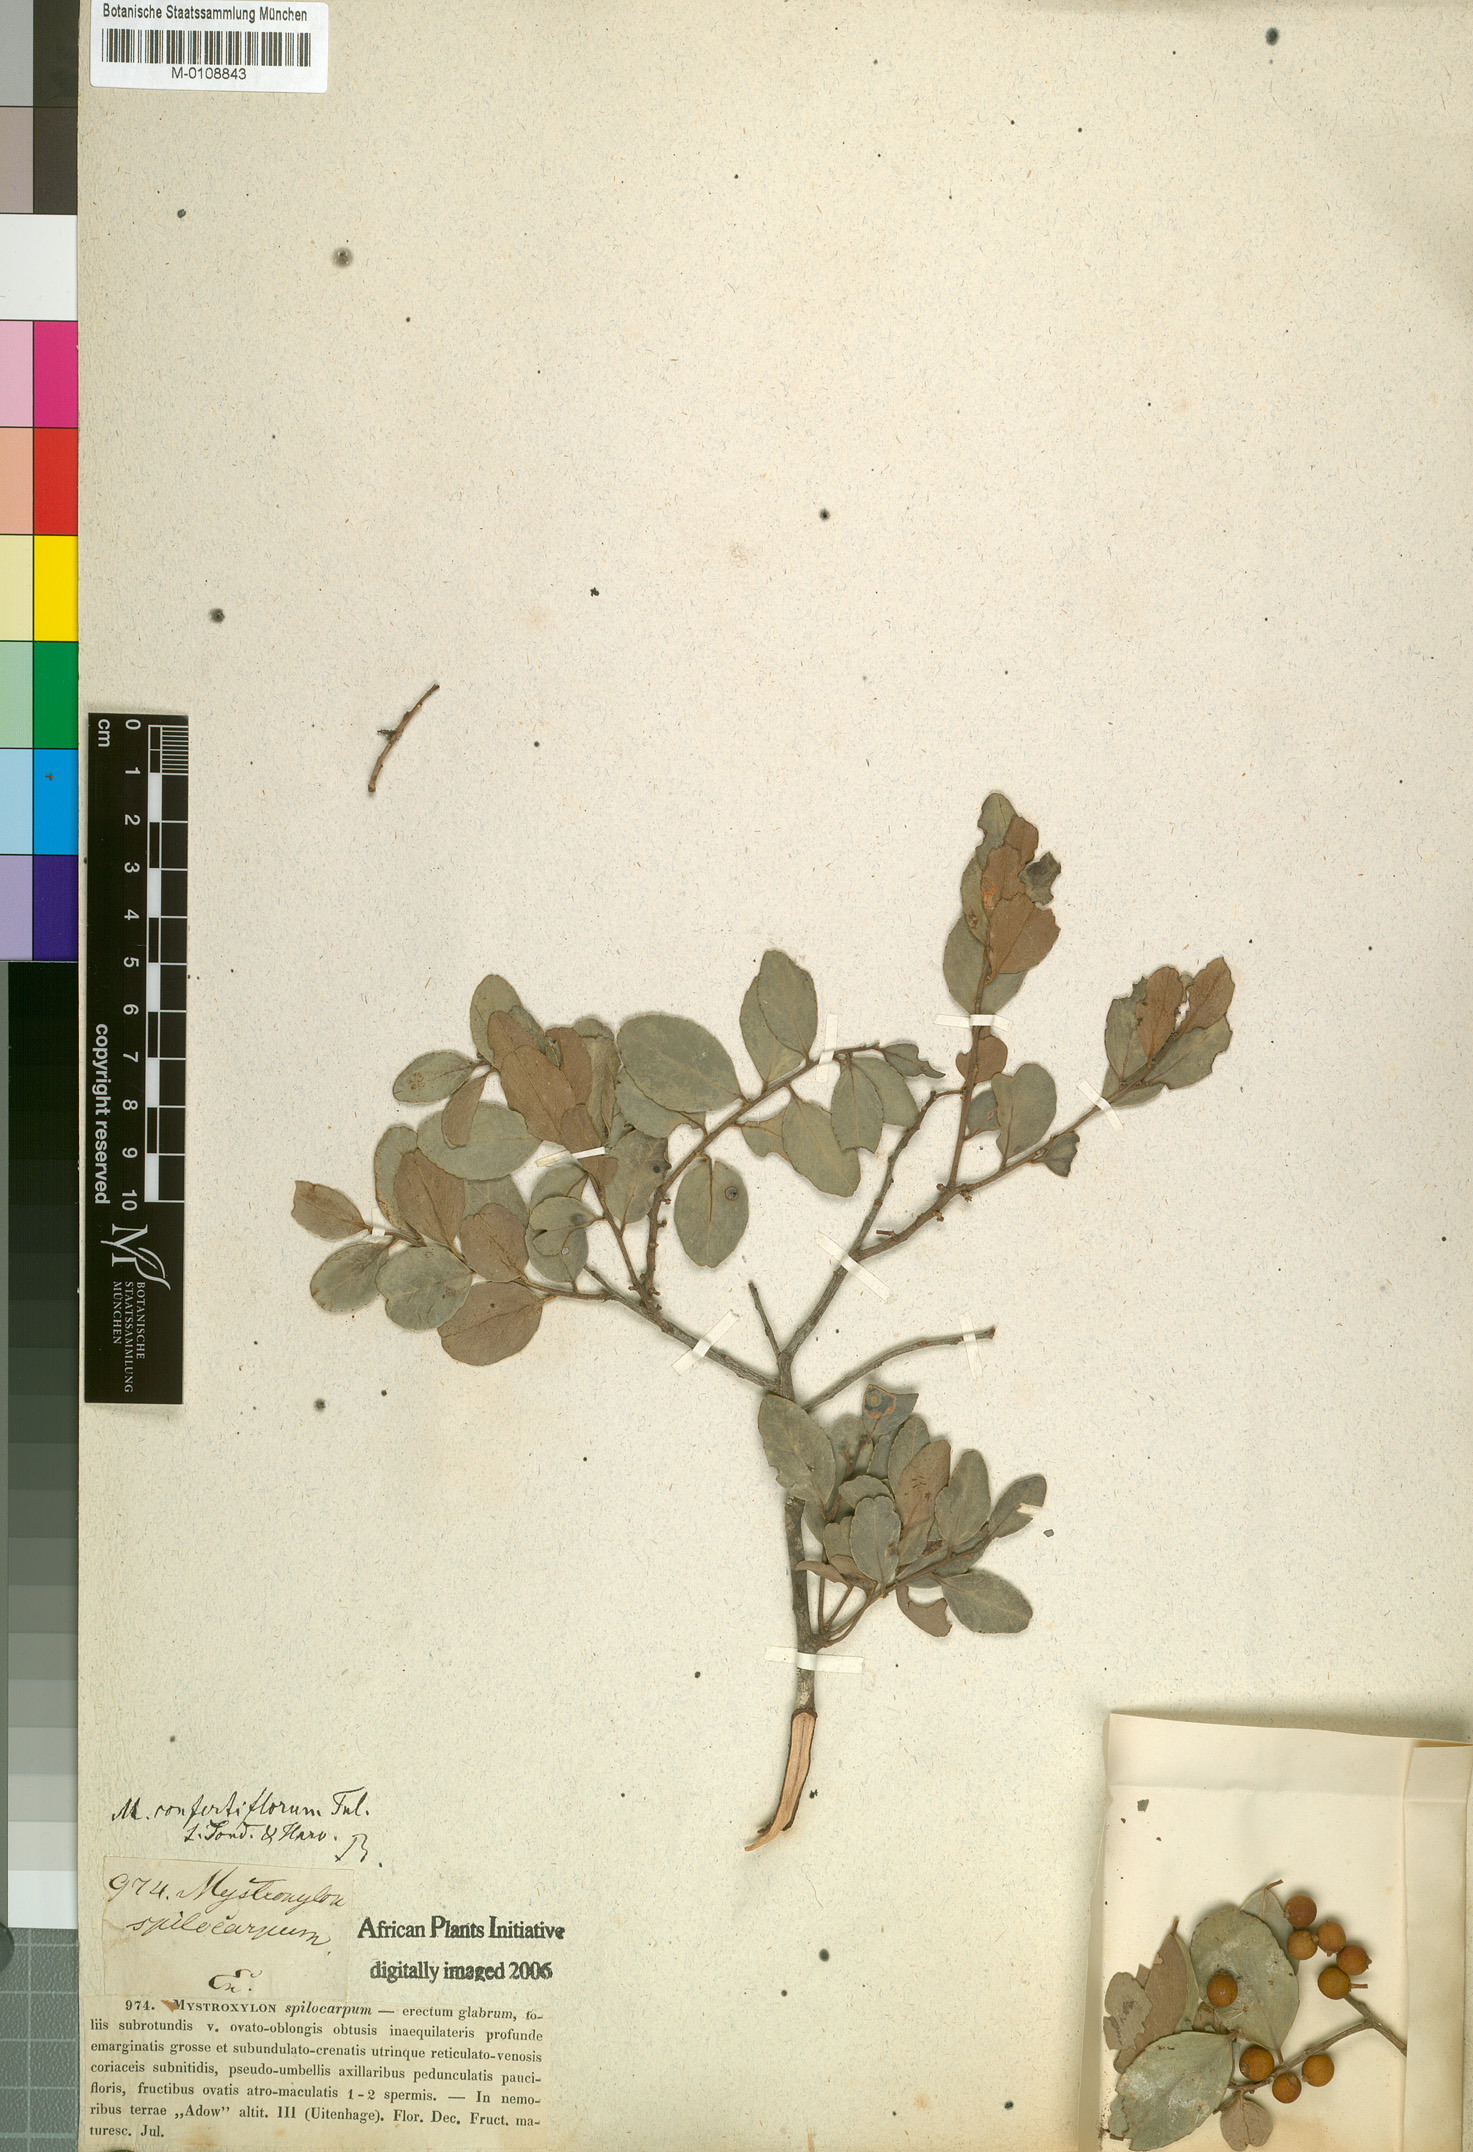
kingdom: Plantae
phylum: Tracheophyta
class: Magnoliopsida
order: Celastrales
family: Celastraceae
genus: Mystroxylon
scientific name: Mystroxylon aethiopicum
